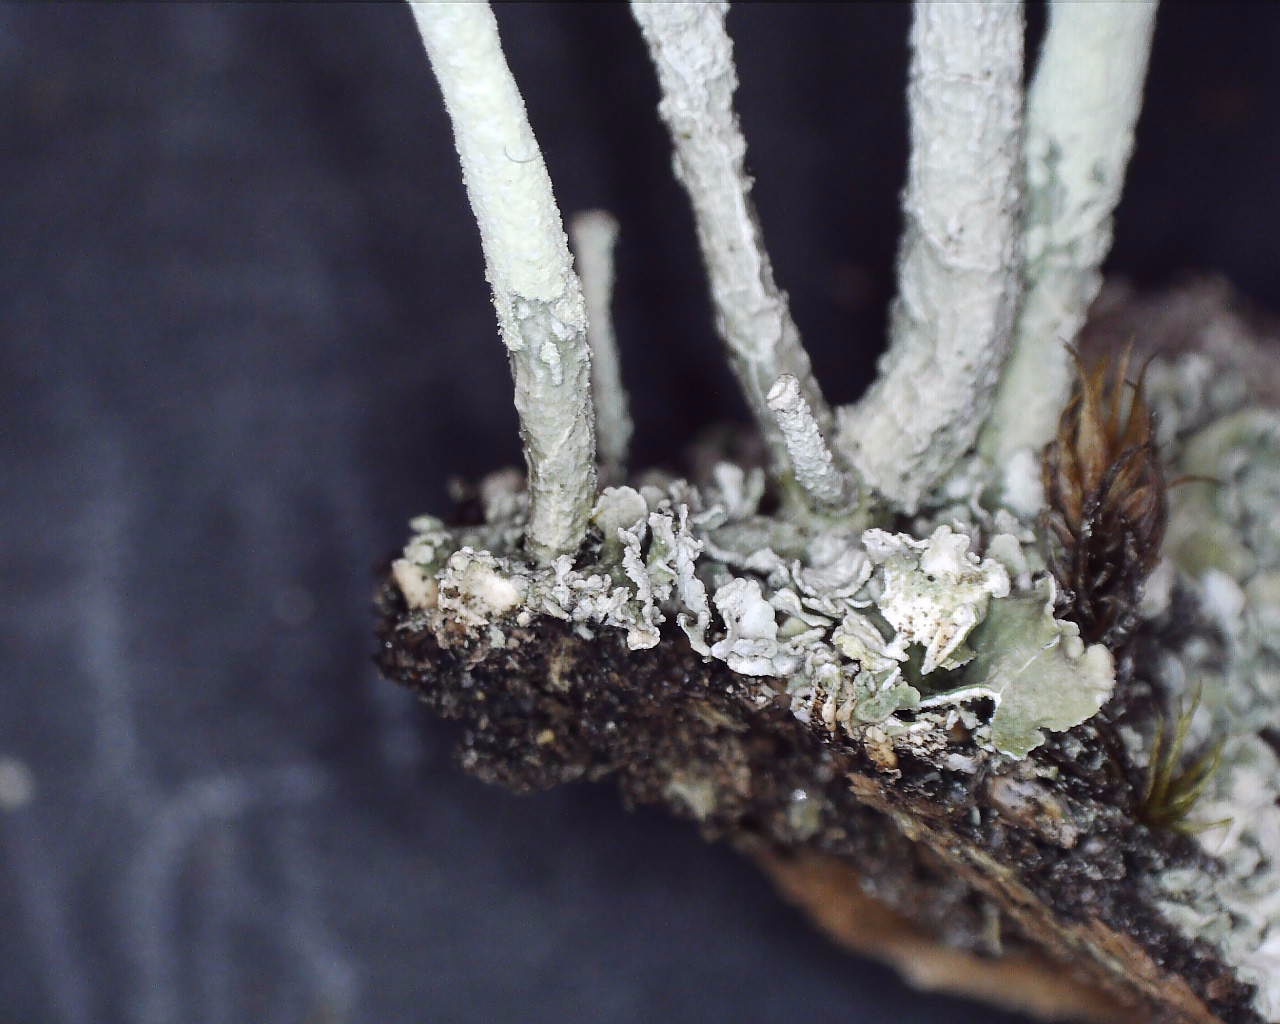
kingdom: Fungi
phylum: Ascomycota
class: Lecanoromycetes
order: Lecanorales
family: Cladoniaceae
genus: Cladonia
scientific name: Cladonia deformis
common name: kreneleret bægerlav
